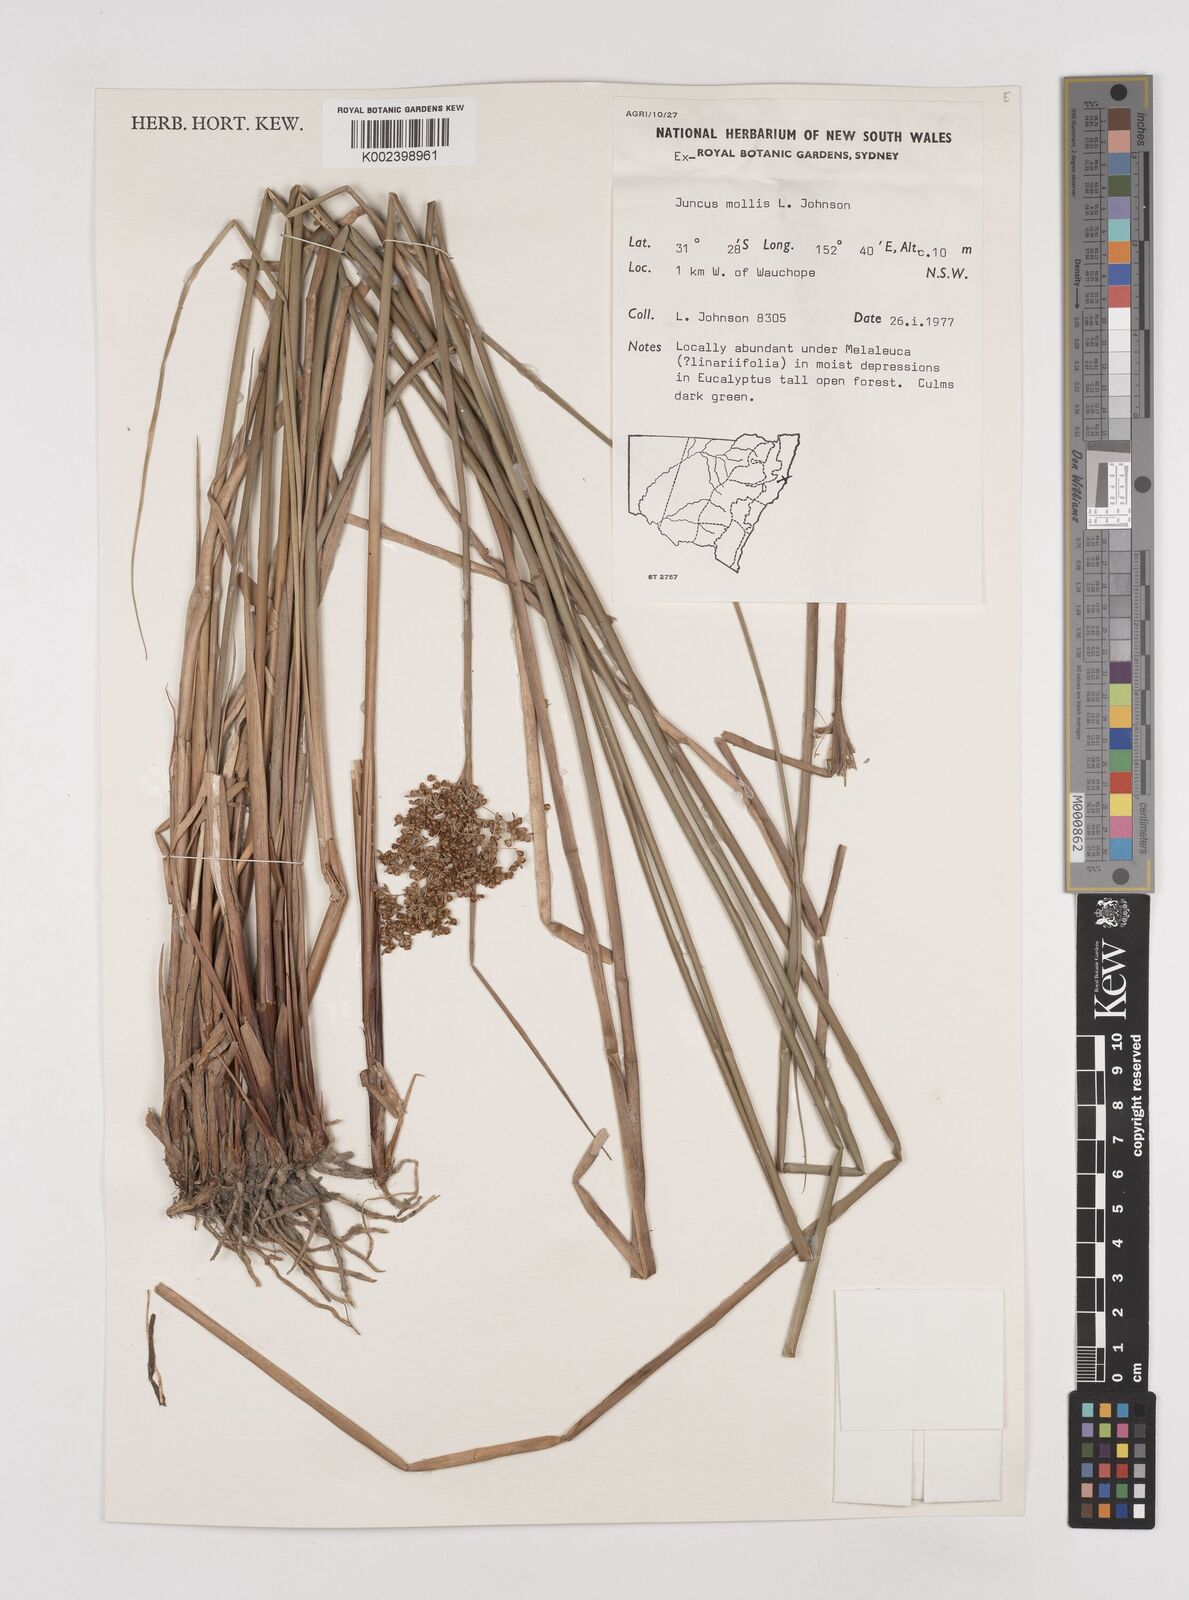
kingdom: Plantae
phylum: Tracheophyta
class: Liliopsida
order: Poales
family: Juncaceae
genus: Juncus
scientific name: Juncus mollis
